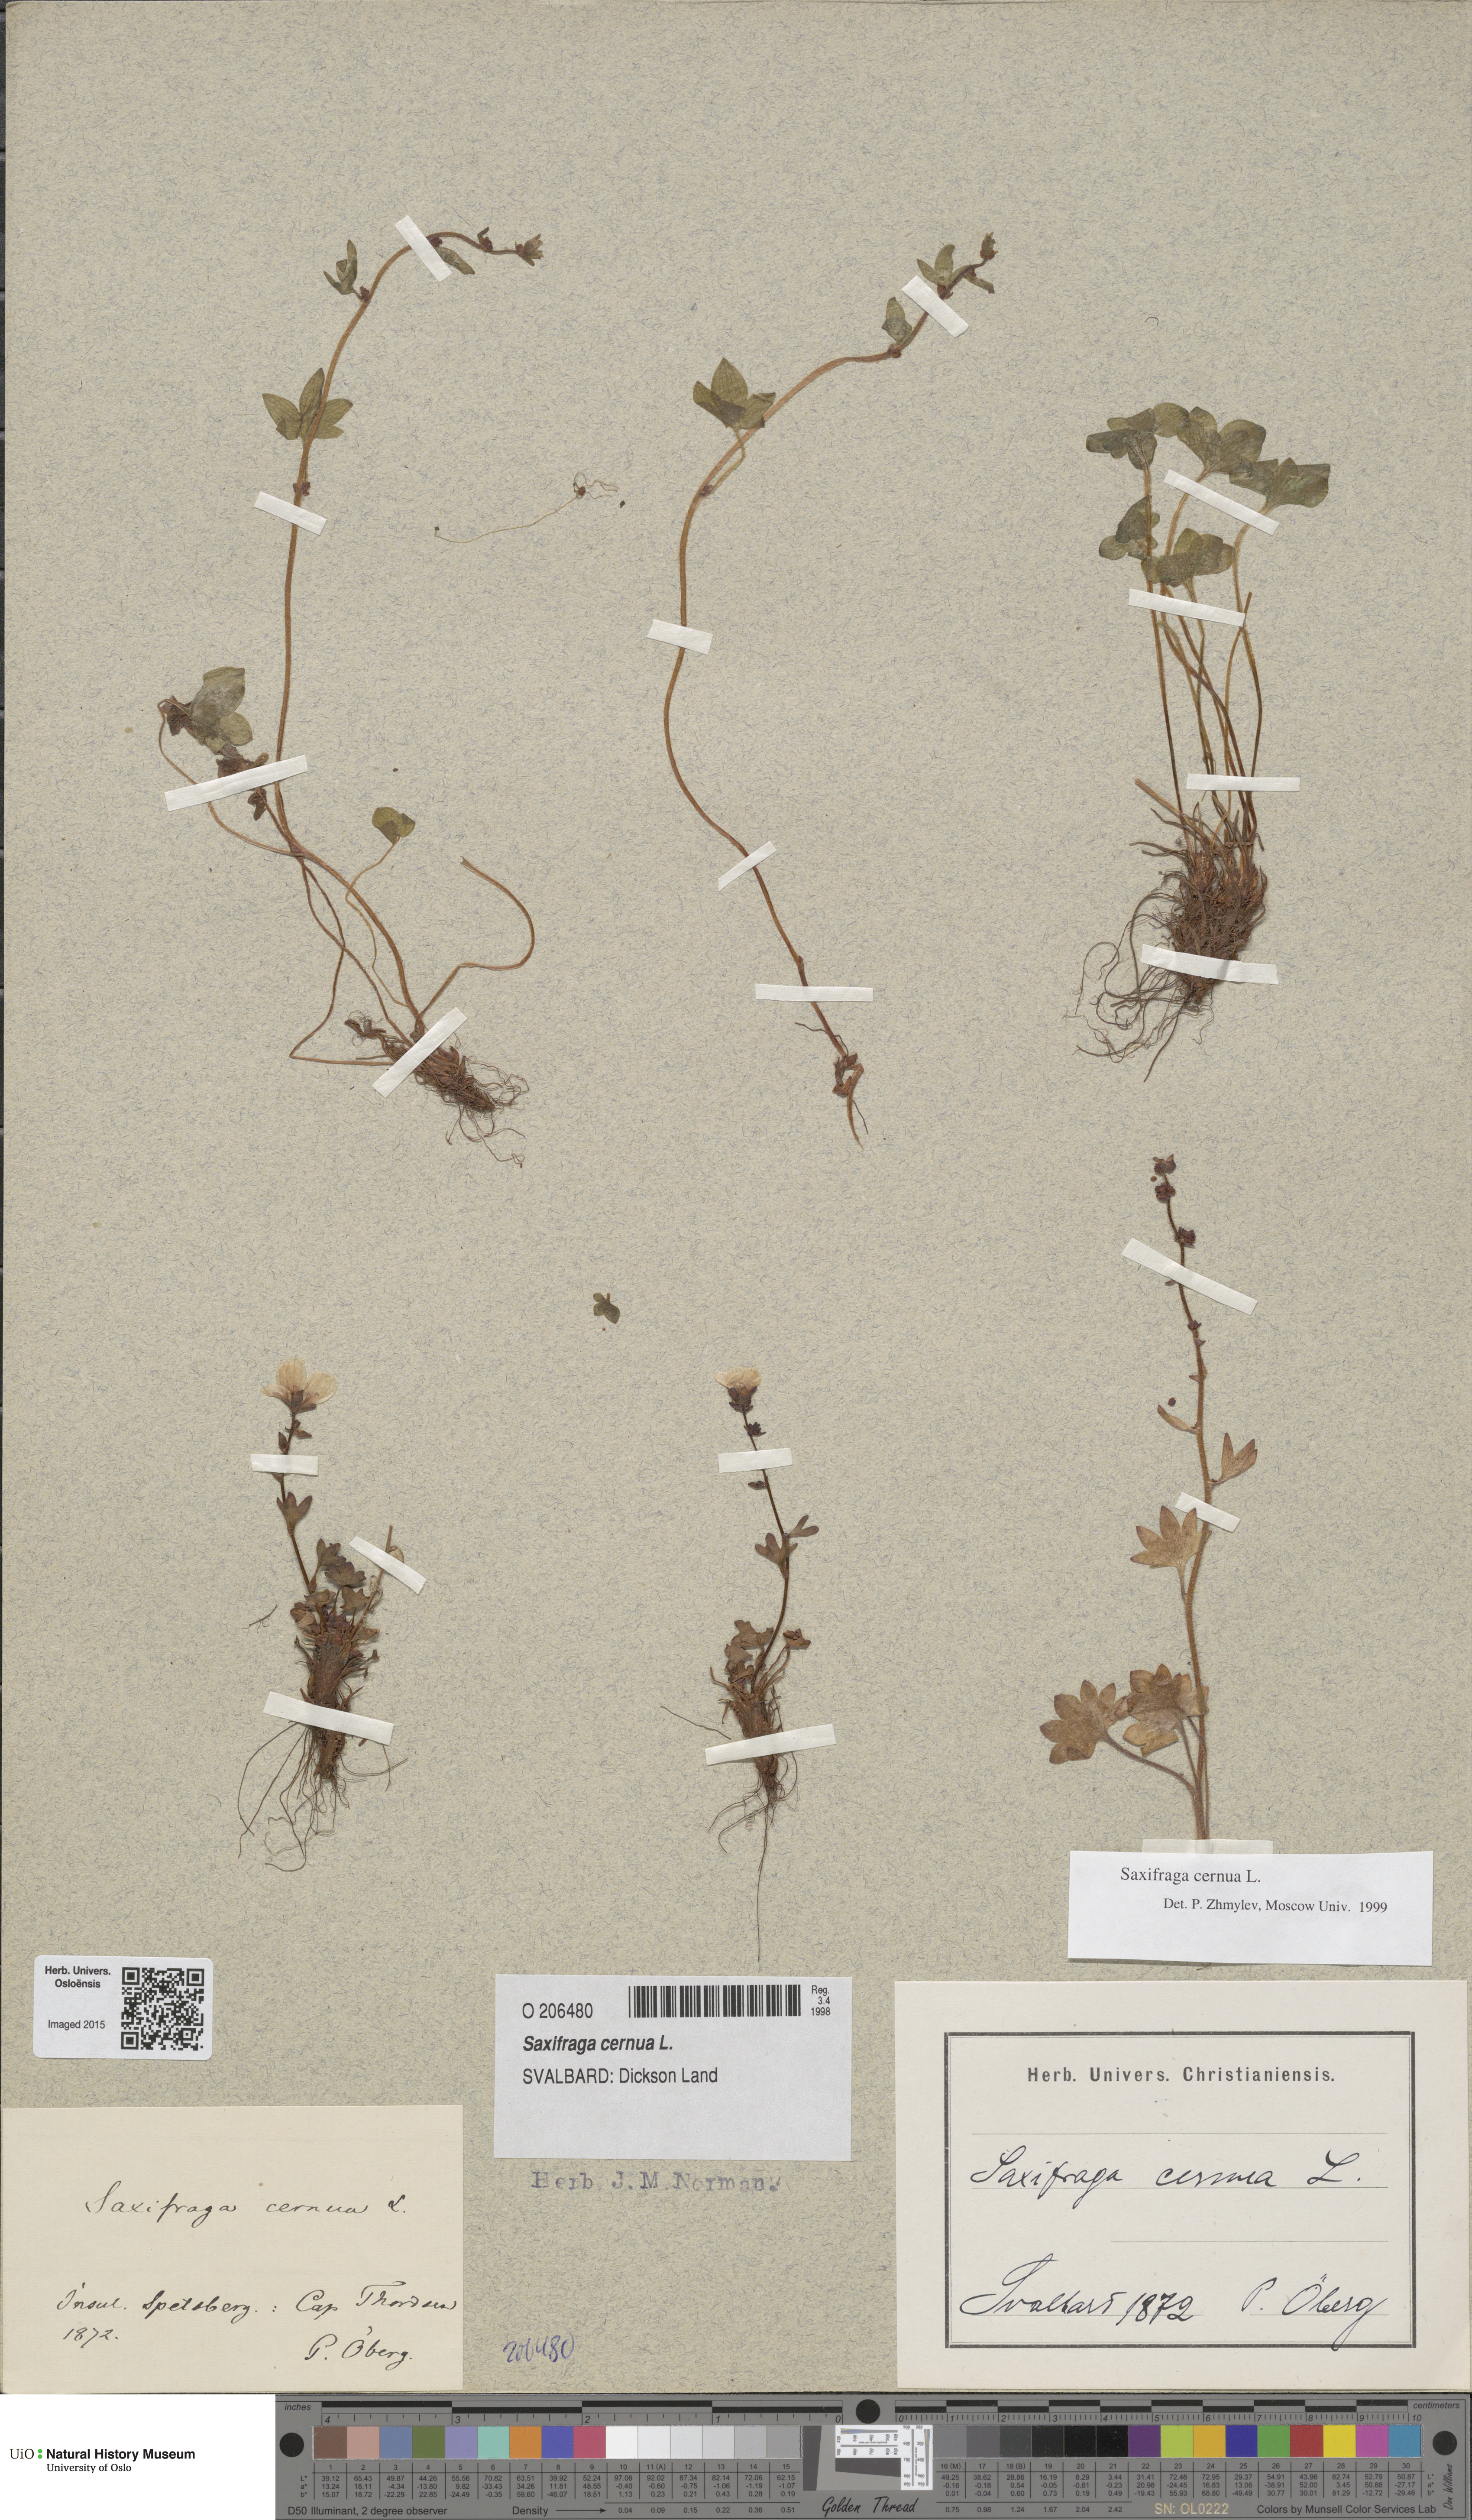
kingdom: Plantae
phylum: Tracheophyta
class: Magnoliopsida
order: Saxifragales
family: Saxifragaceae
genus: Saxifraga
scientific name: Saxifraga cernua
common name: Drooping saxifrage
